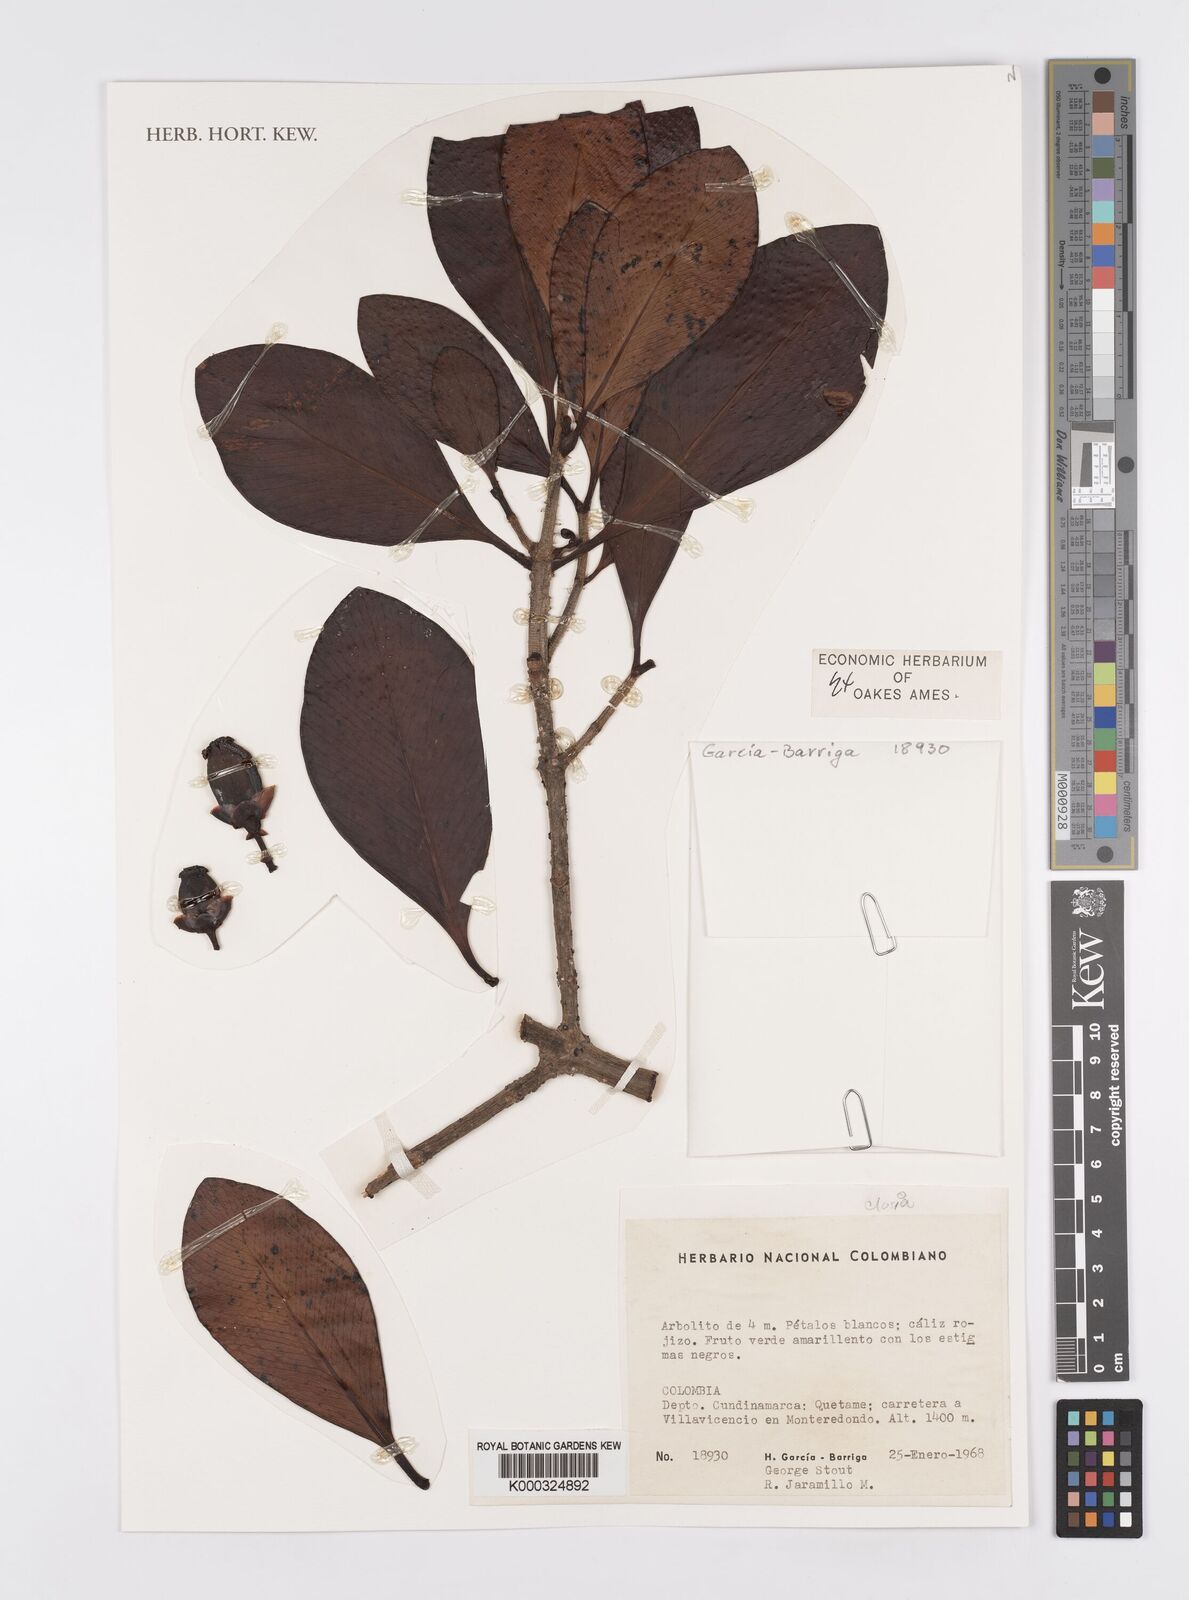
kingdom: Plantae
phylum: Tracheophyta
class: Magnoliopsida
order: Malpighiales
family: Clusiaceae
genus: Clusia
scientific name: Clusia
